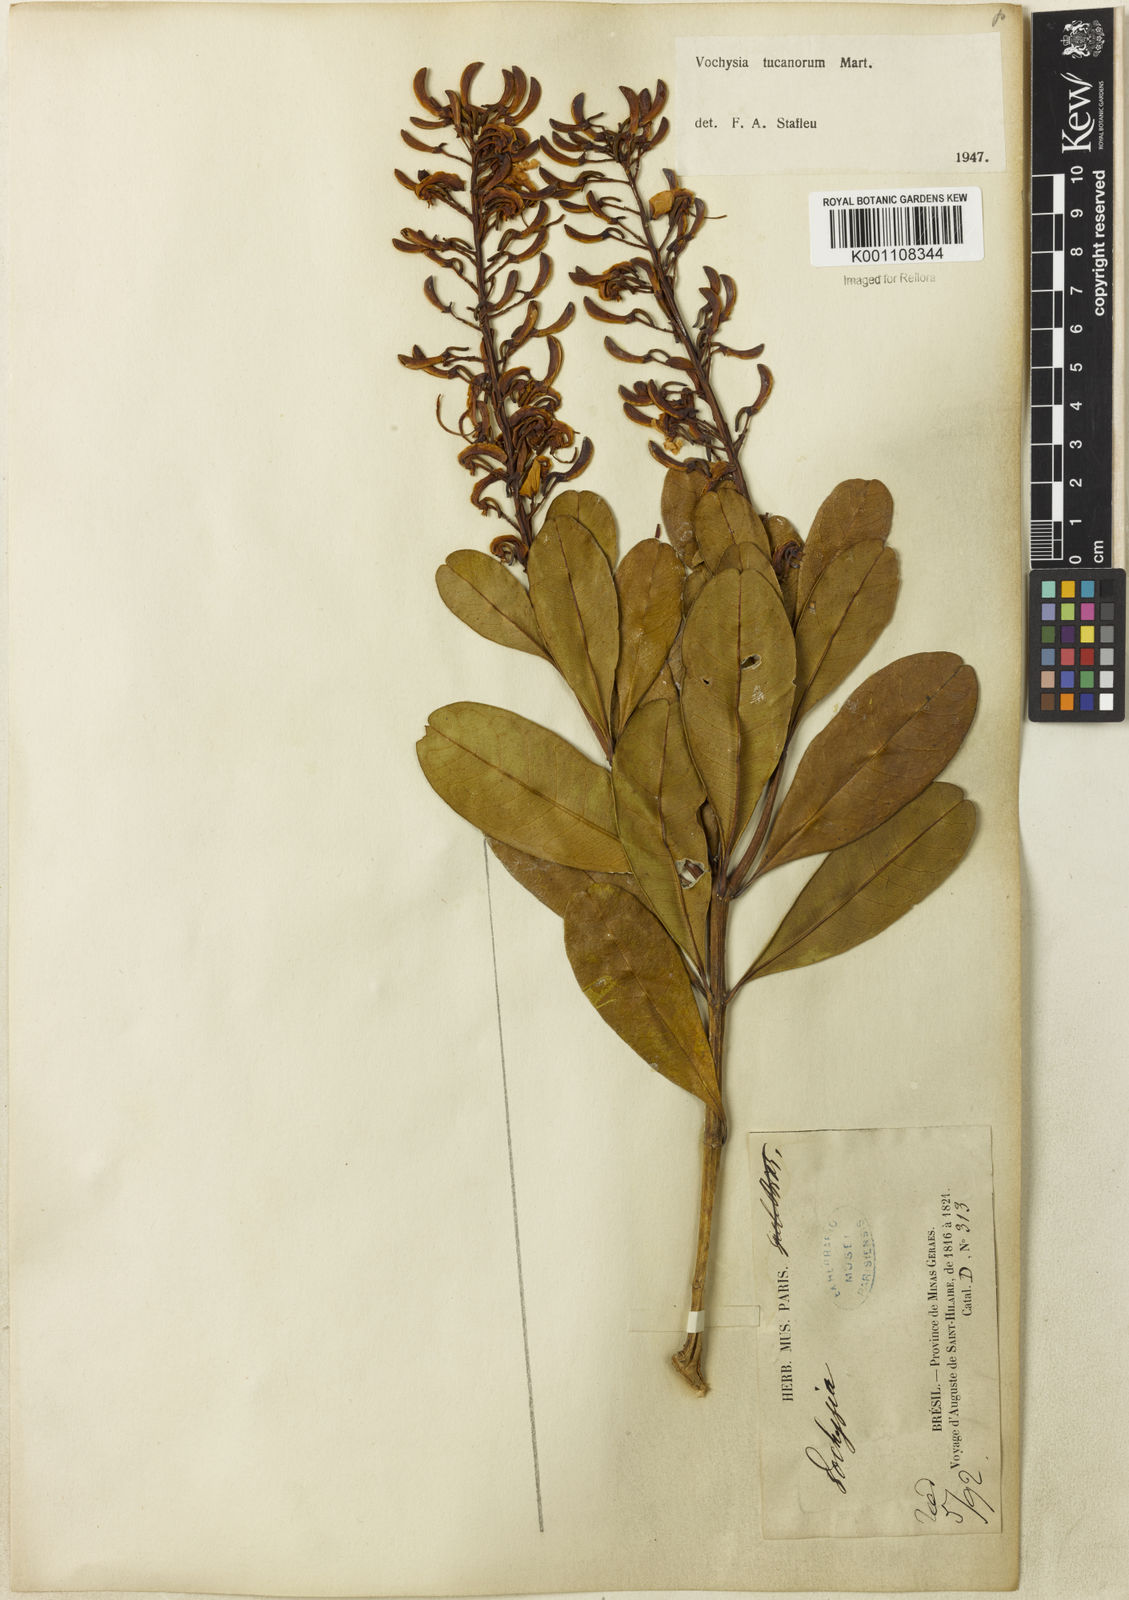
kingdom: Plantae
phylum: Tracheophyta
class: Magnoliopsida
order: Myrtales
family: Vochysiaceae
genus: Vochysia
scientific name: Vochysia tucanorum
